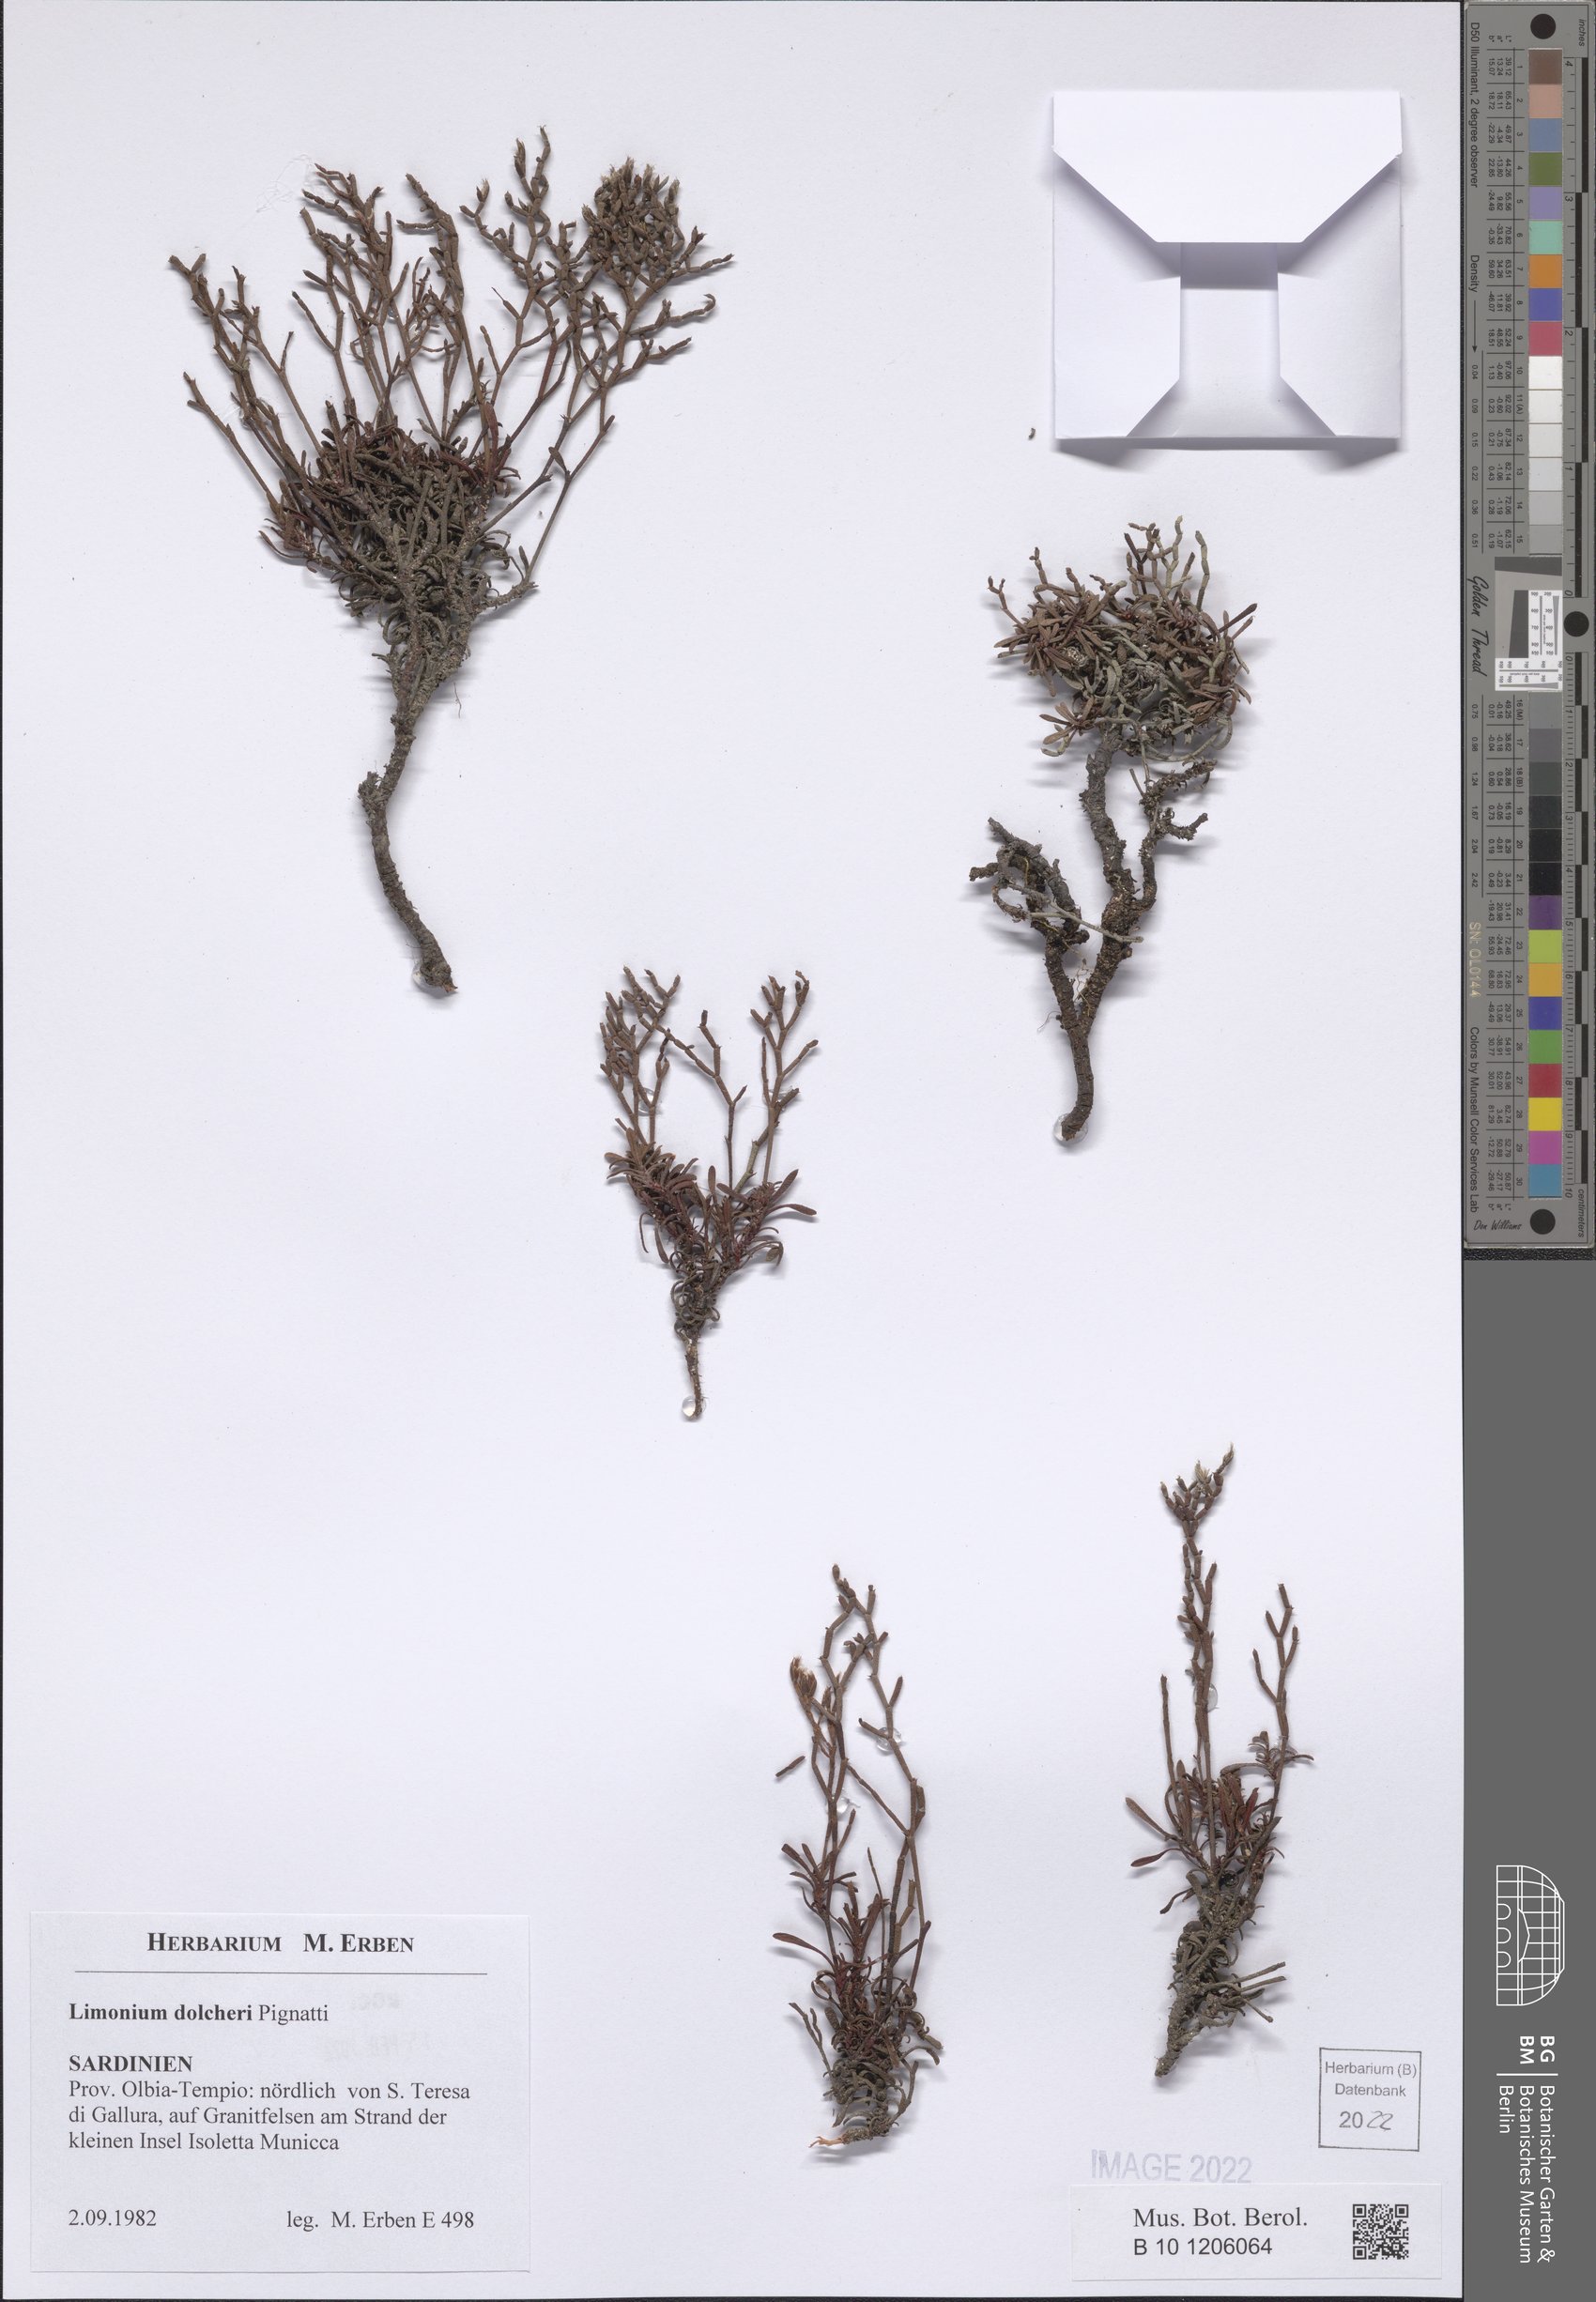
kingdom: Plantae
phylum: Tracheophyta
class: Magnoliopsida
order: Caryophyllales
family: Plumbaginaceae
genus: Limonium
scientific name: Limonium dolcheri
